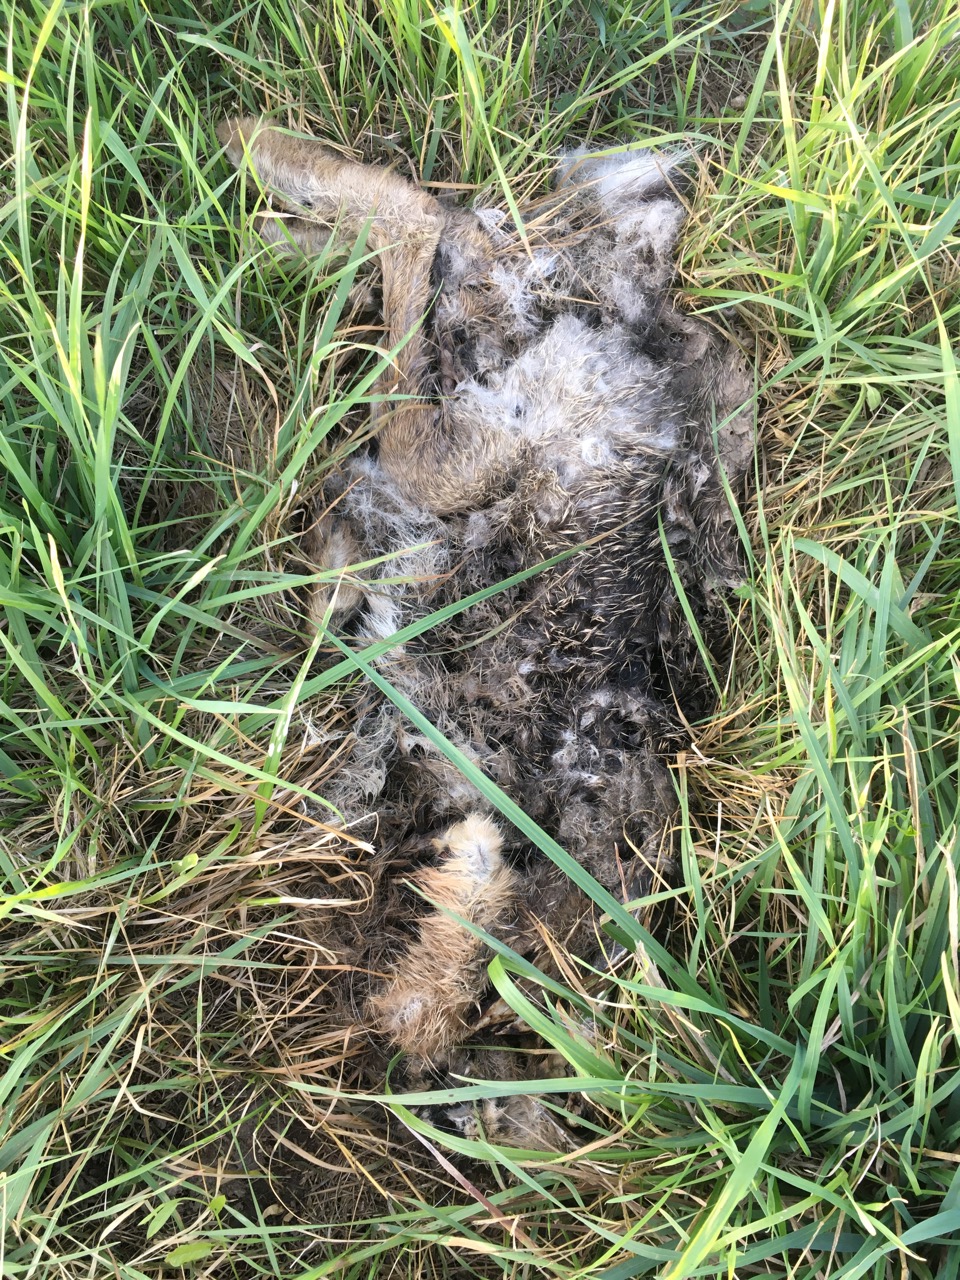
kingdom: Animalia
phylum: Chordata
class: Mammalia
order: Lagomorpha
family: Leporidae
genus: Lepus
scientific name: Lepus europaeus
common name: European hare
